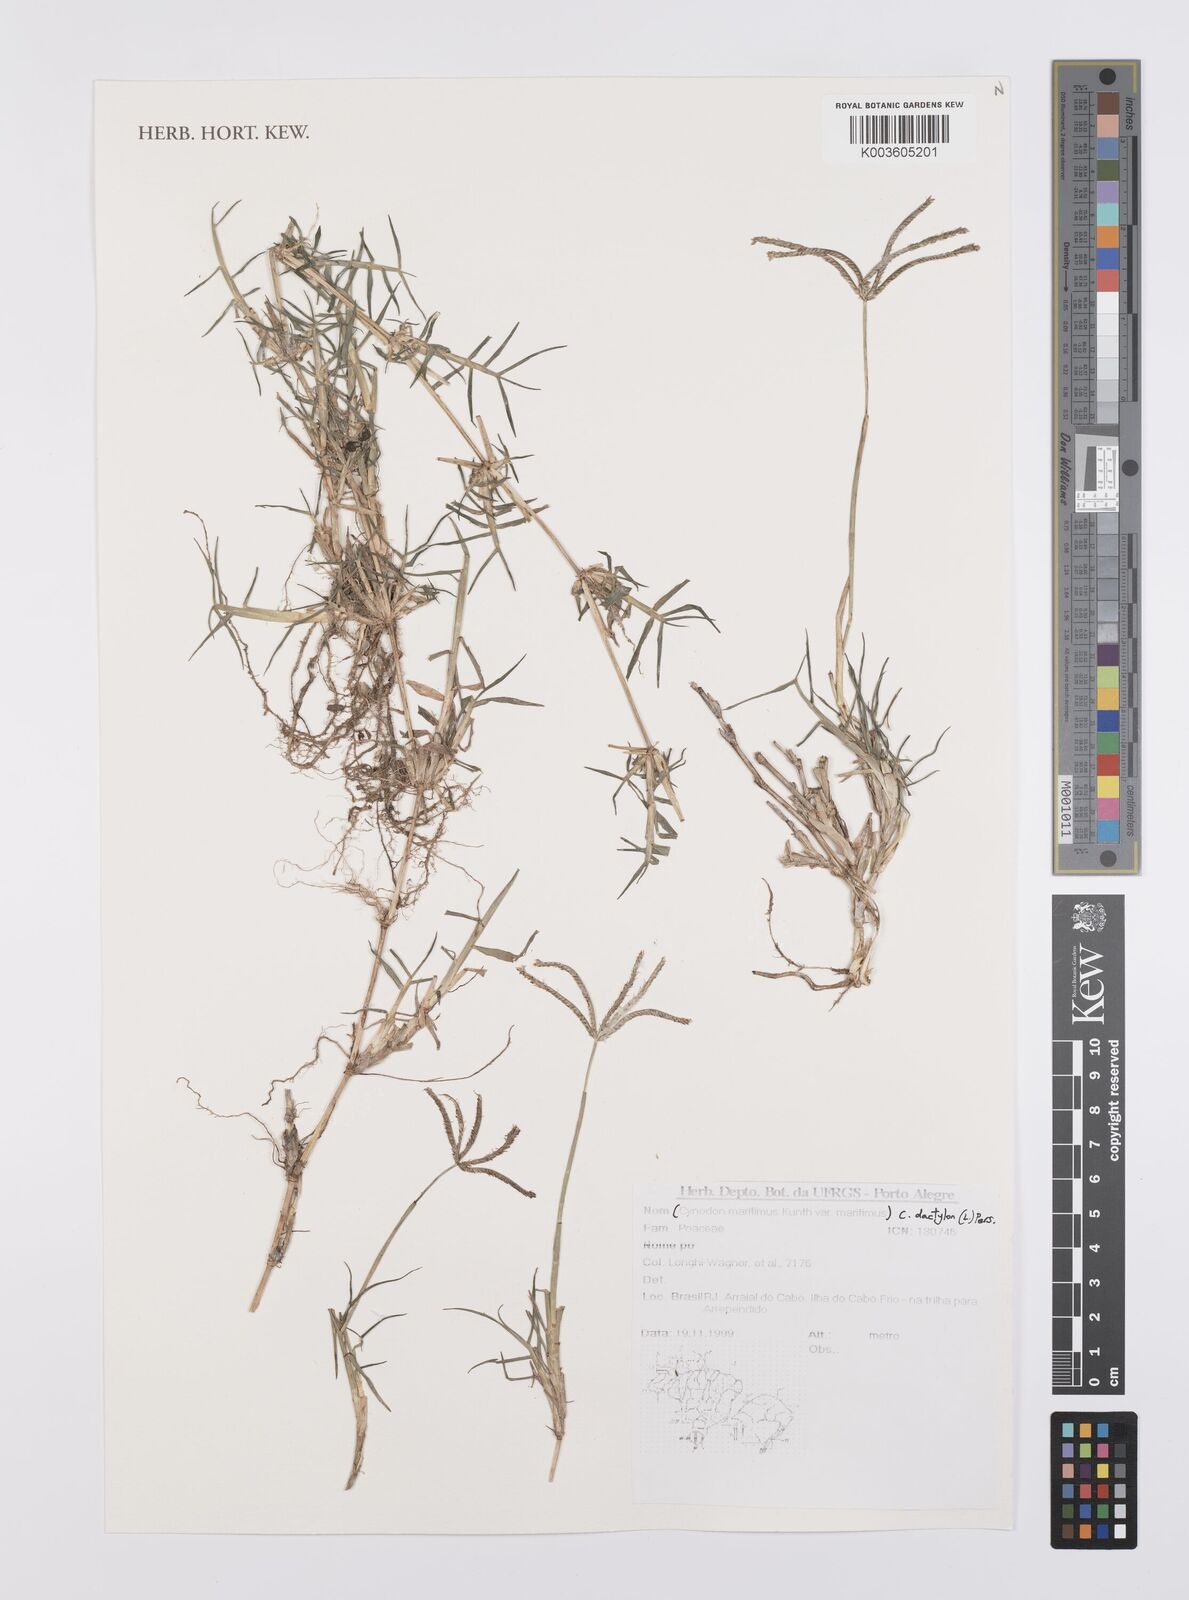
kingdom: Plantae
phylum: Tracheophyta
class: Liliopsida
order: Poales
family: Poaceae
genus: Cynodon
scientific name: Cynodon dactylon
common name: Bermuda grass
